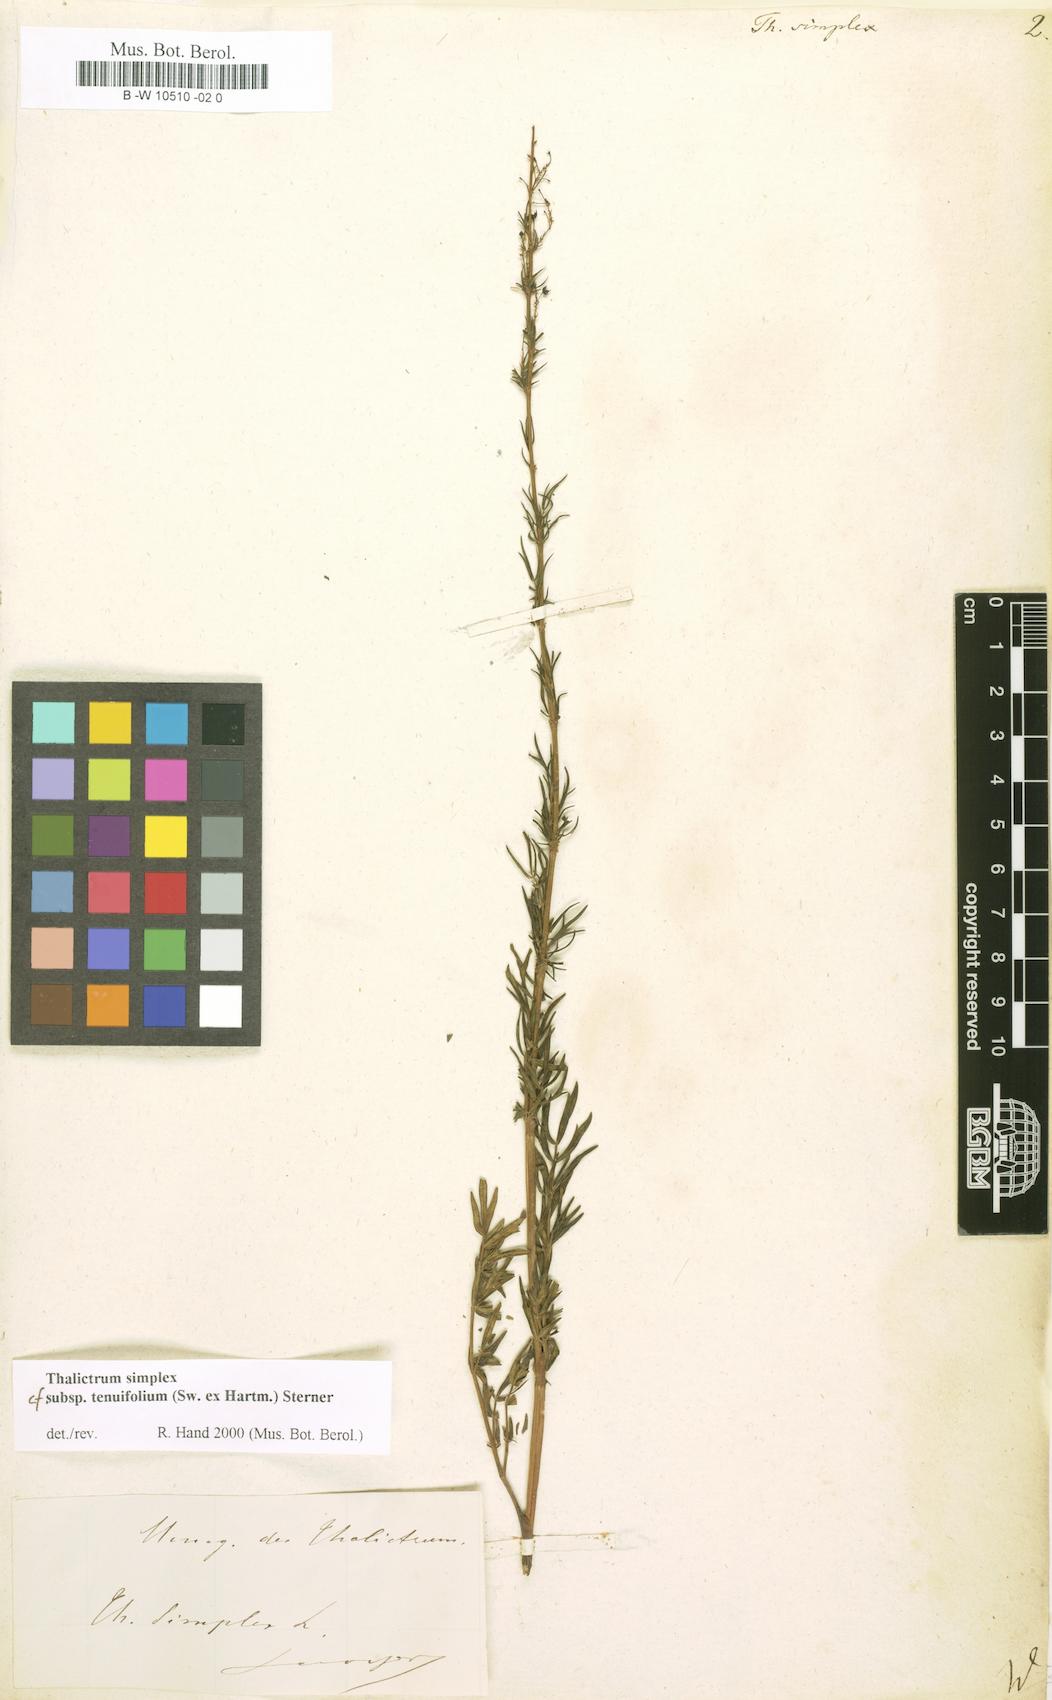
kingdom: Plantae
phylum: Tracheophyta
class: Magnoliopsida
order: Ranunculales
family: Ranunculaceae
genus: Thalictrum
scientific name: Thalictrum simplex
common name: Small meadow-rue
